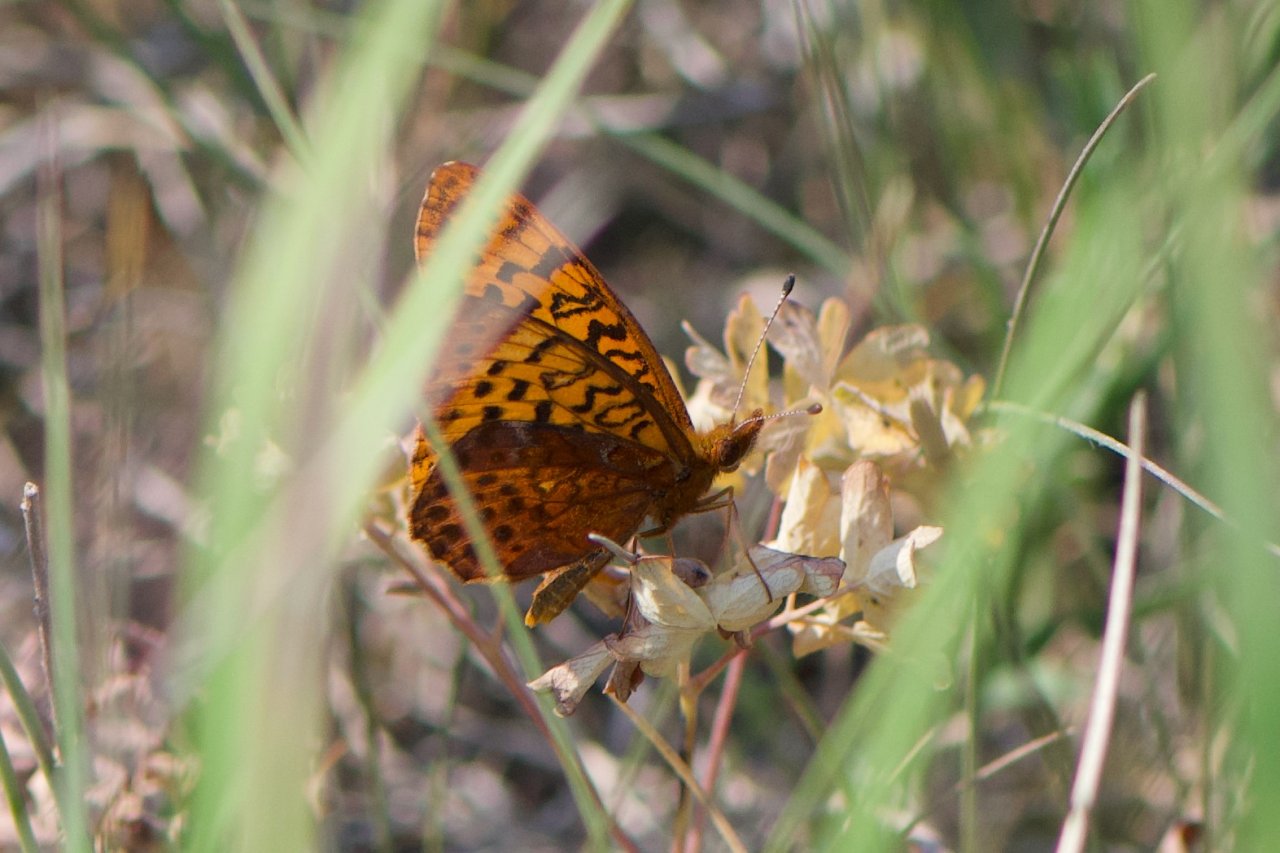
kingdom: Animalia
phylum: Arthropoda
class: Insecta
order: Lepidoptera
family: Nymphalidae
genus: Clossiana
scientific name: Clossiana toddi
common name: Meadow Fritillary
